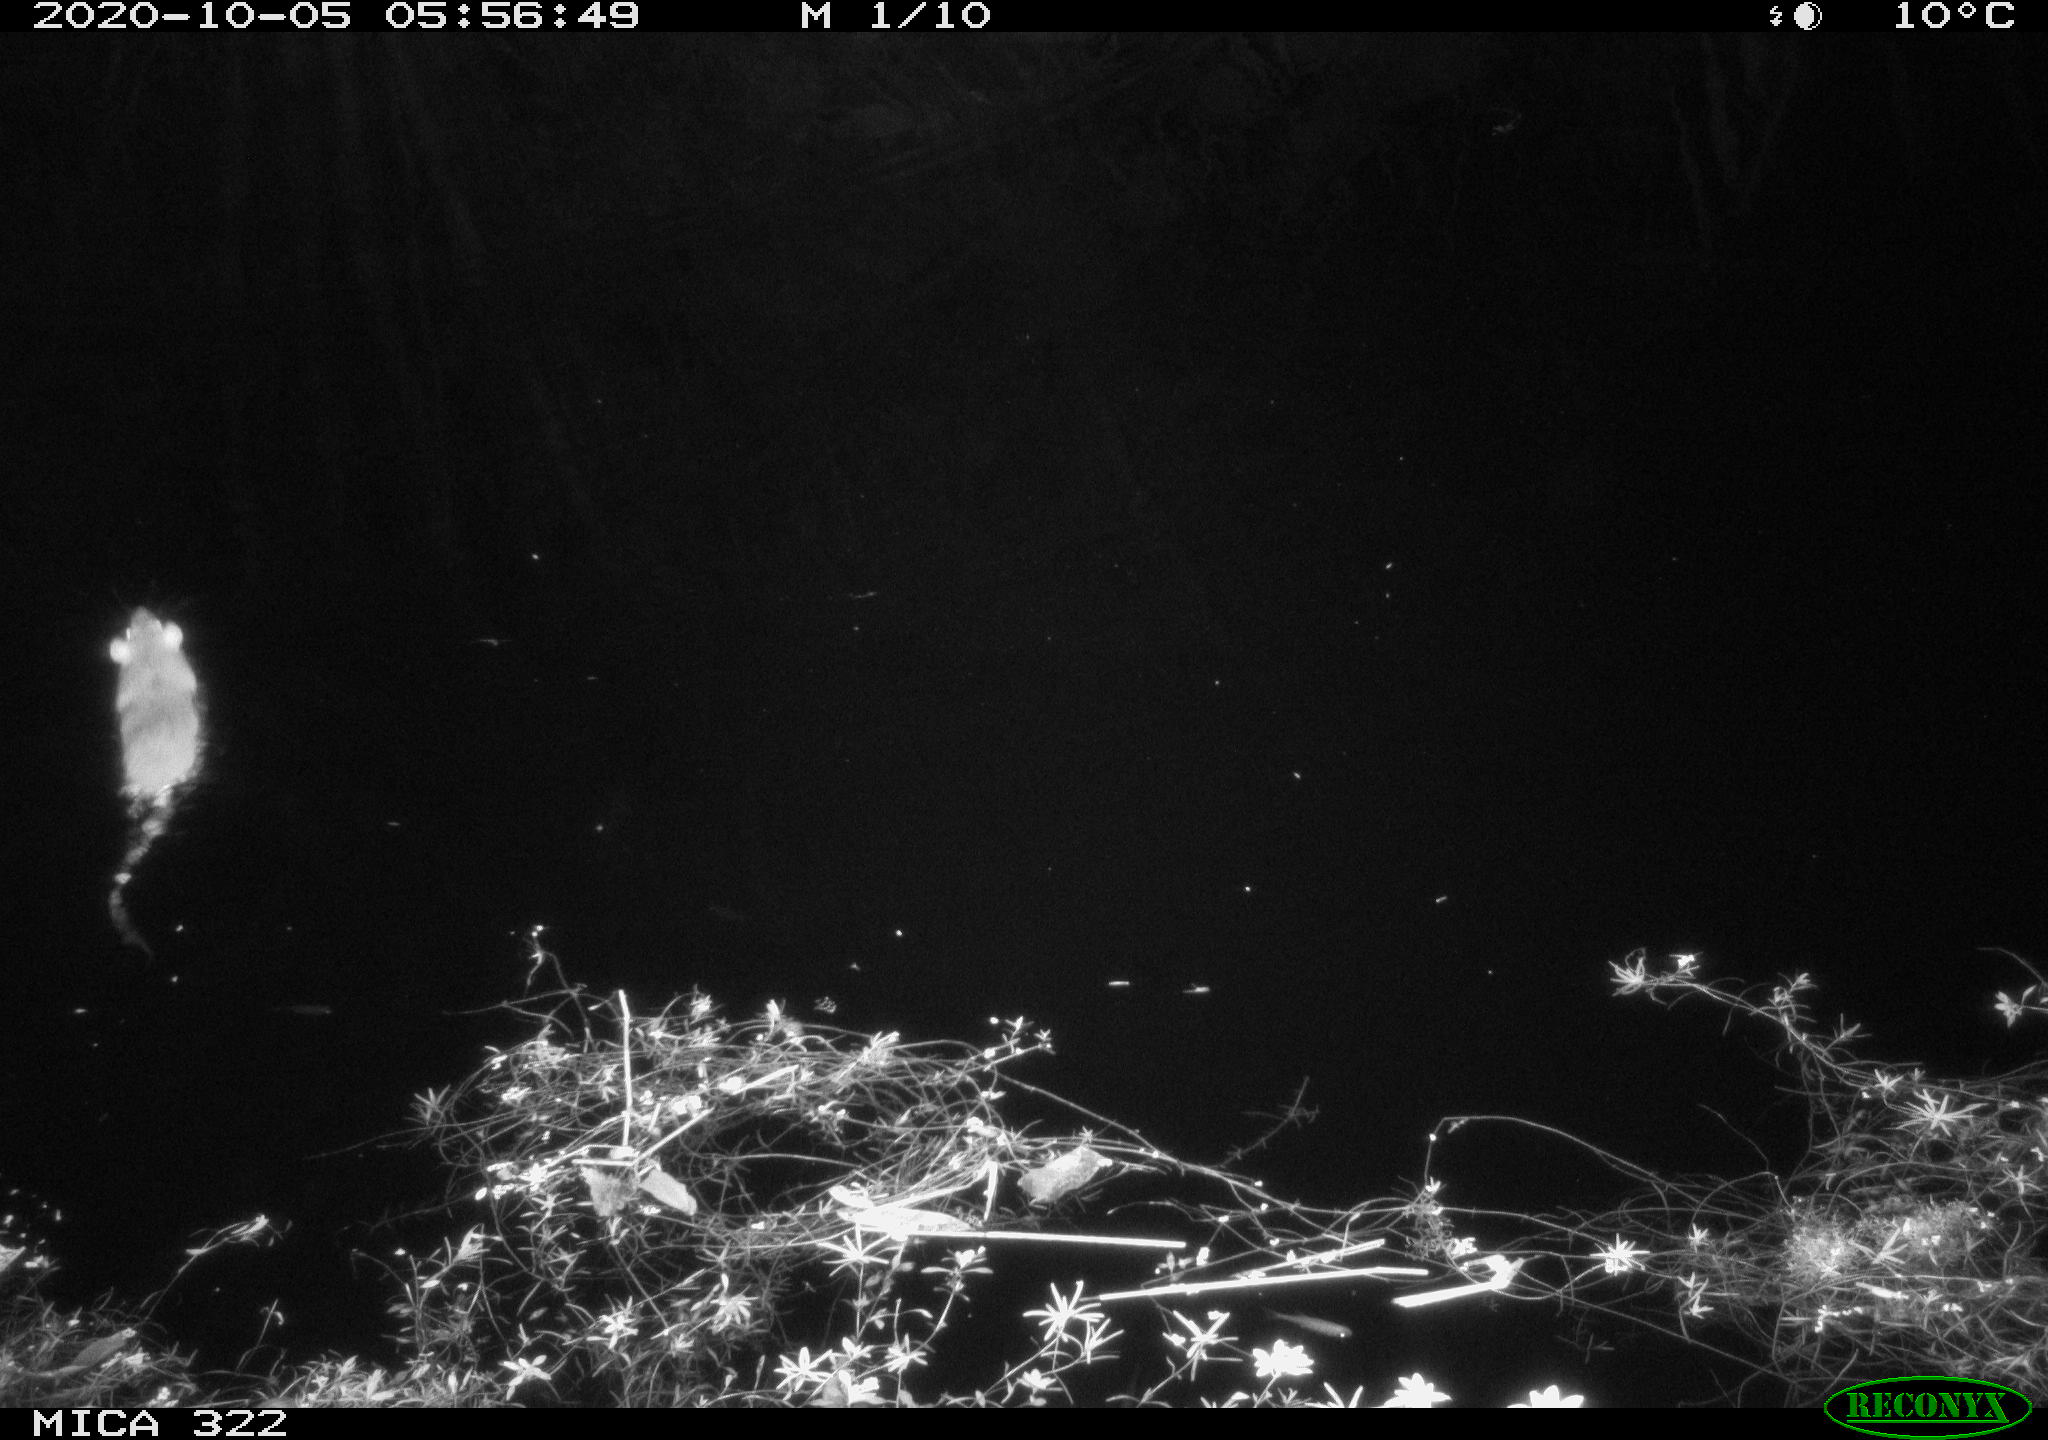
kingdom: Animalia
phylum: Chordata
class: Mammalia
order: Rodentia
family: Muridae
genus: Rattus
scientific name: Rattus norvegicus
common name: Brown rat
